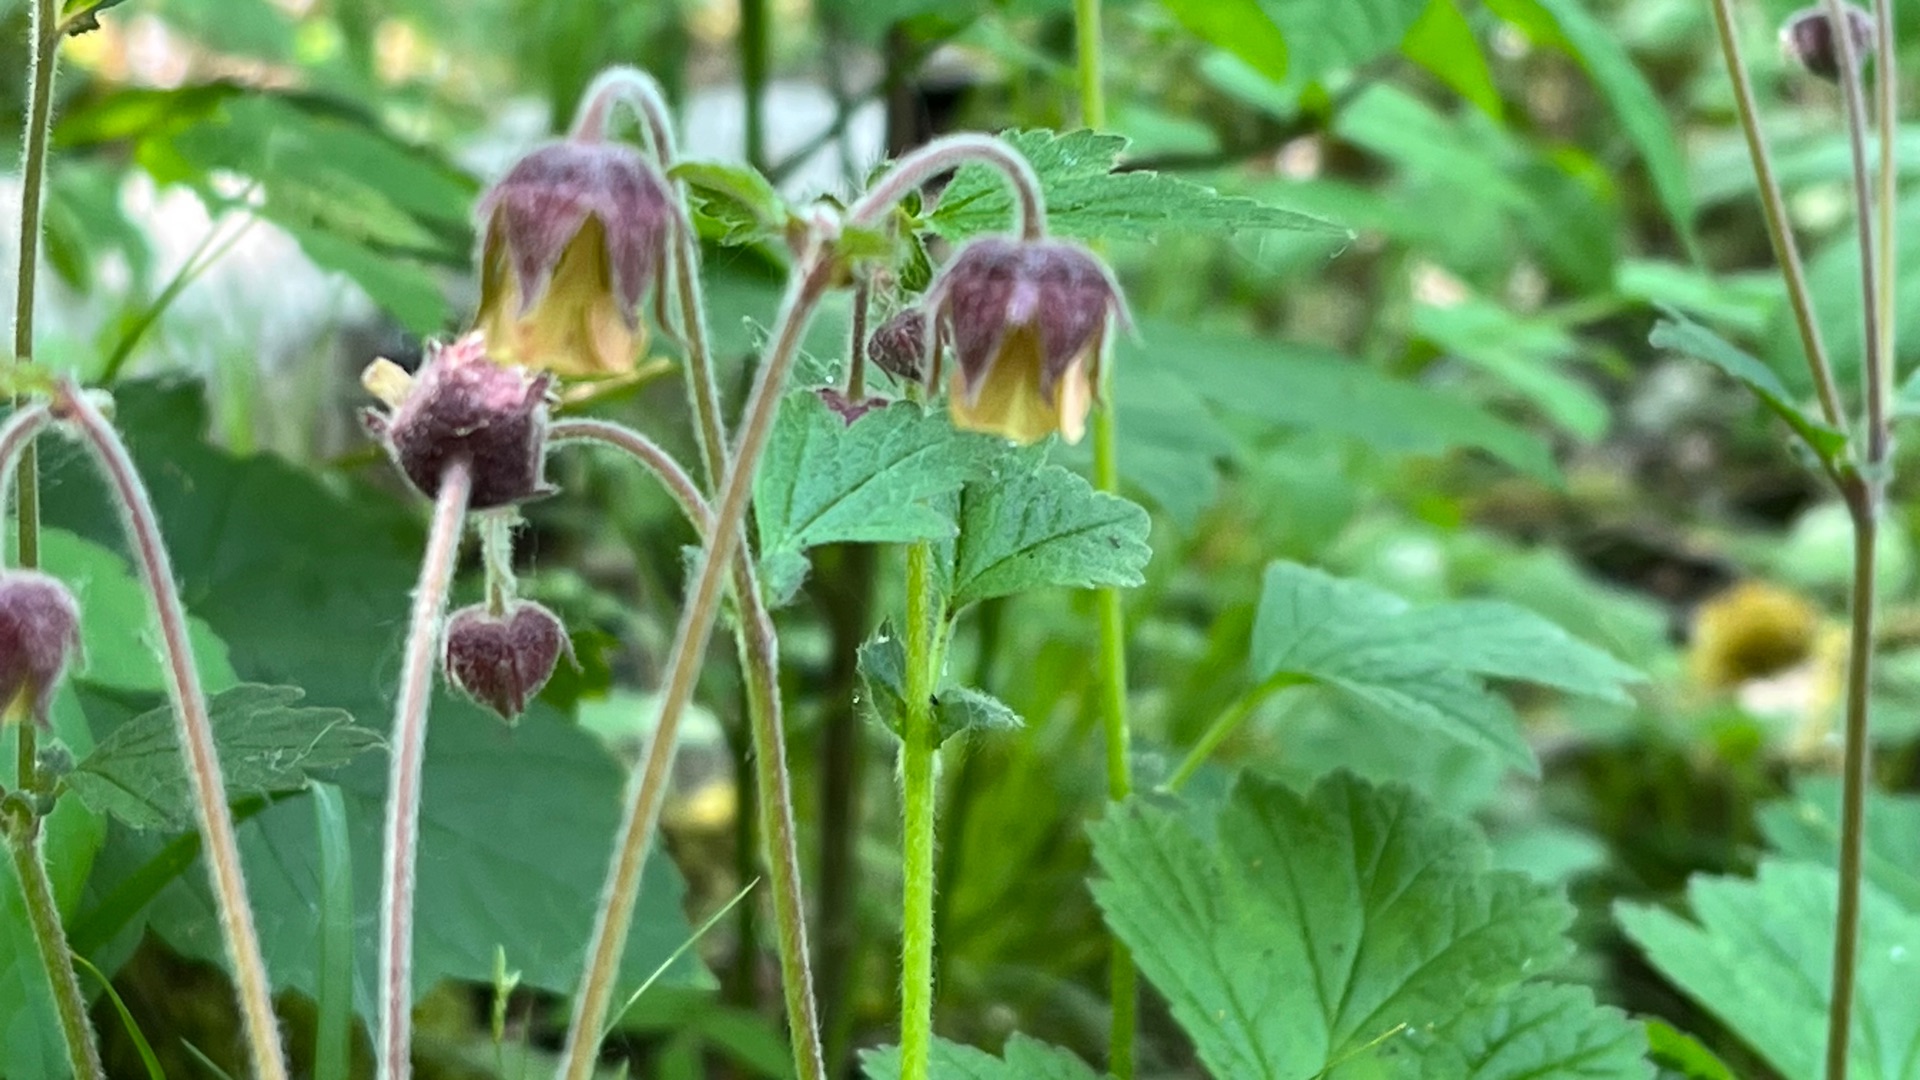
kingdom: Plantae
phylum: Tracheophyta
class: Magnoliopsida
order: Rosales
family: Rosaceae
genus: Geum
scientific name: Geum rivale
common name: Eng-nellikerod
